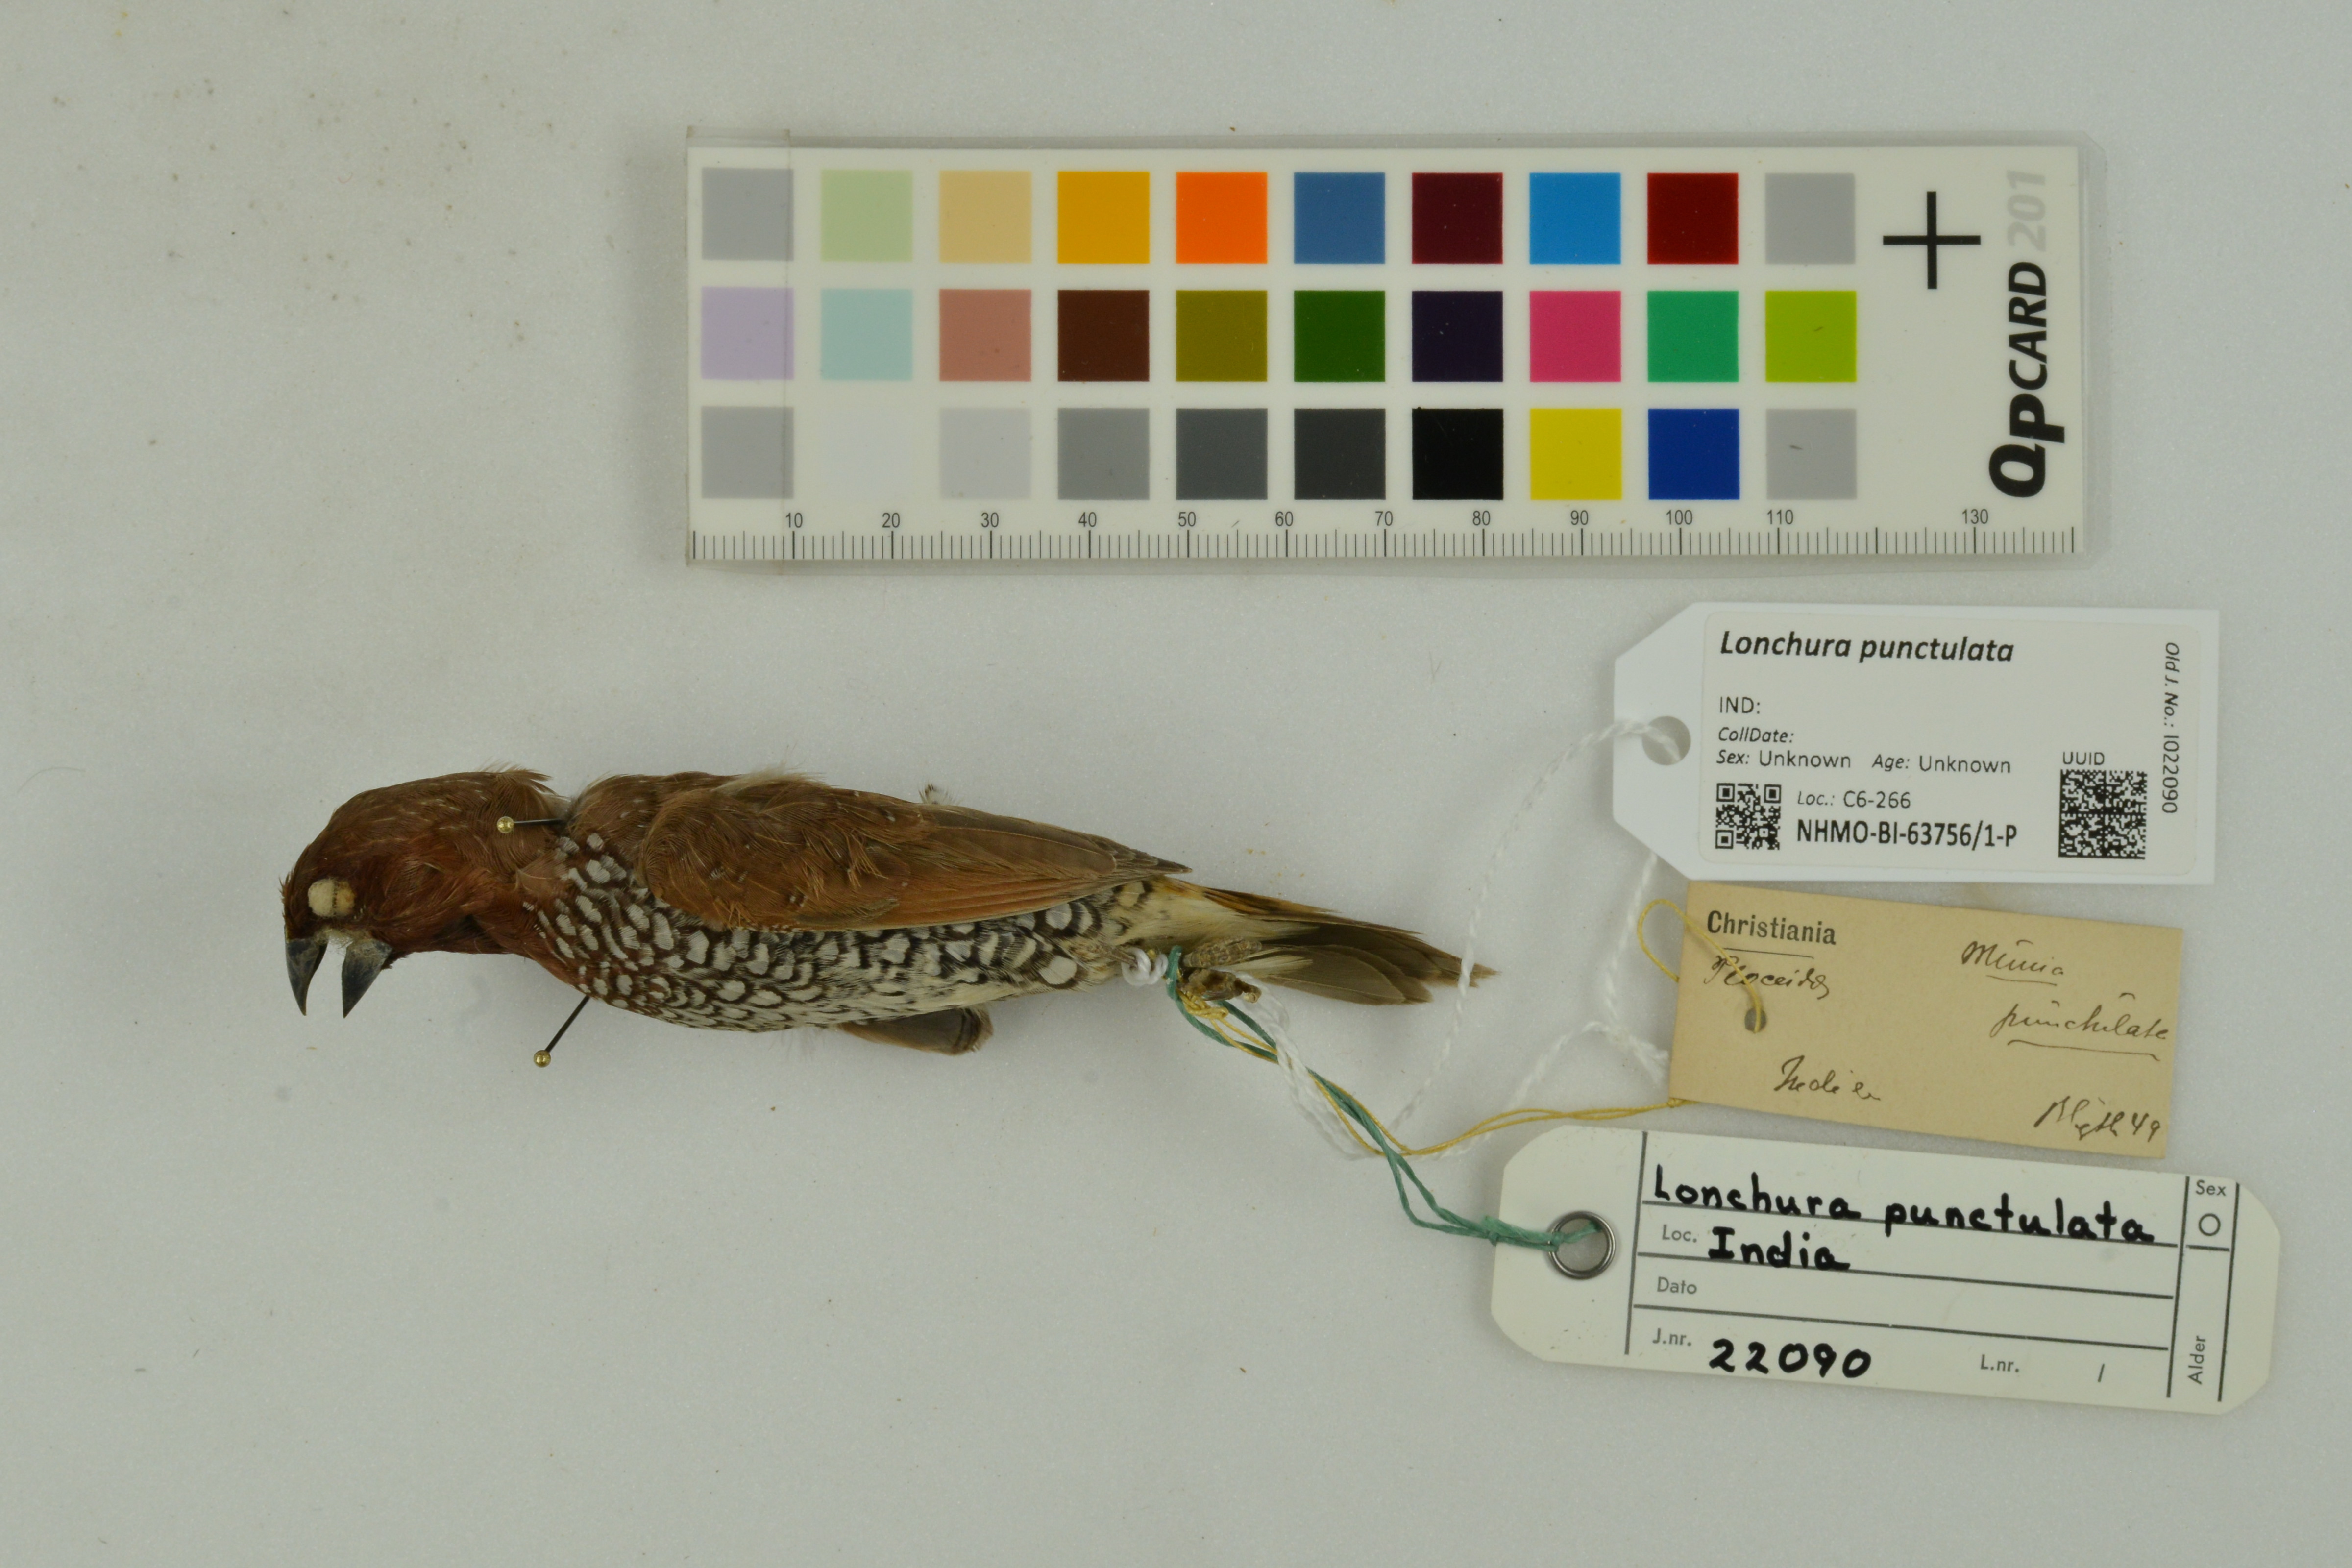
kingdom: Animalia
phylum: Chordata
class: Aves
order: Passeriformes
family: Estrildidae
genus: Lonchura
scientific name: Lonchura punctulata
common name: Scaly-breasted munia
